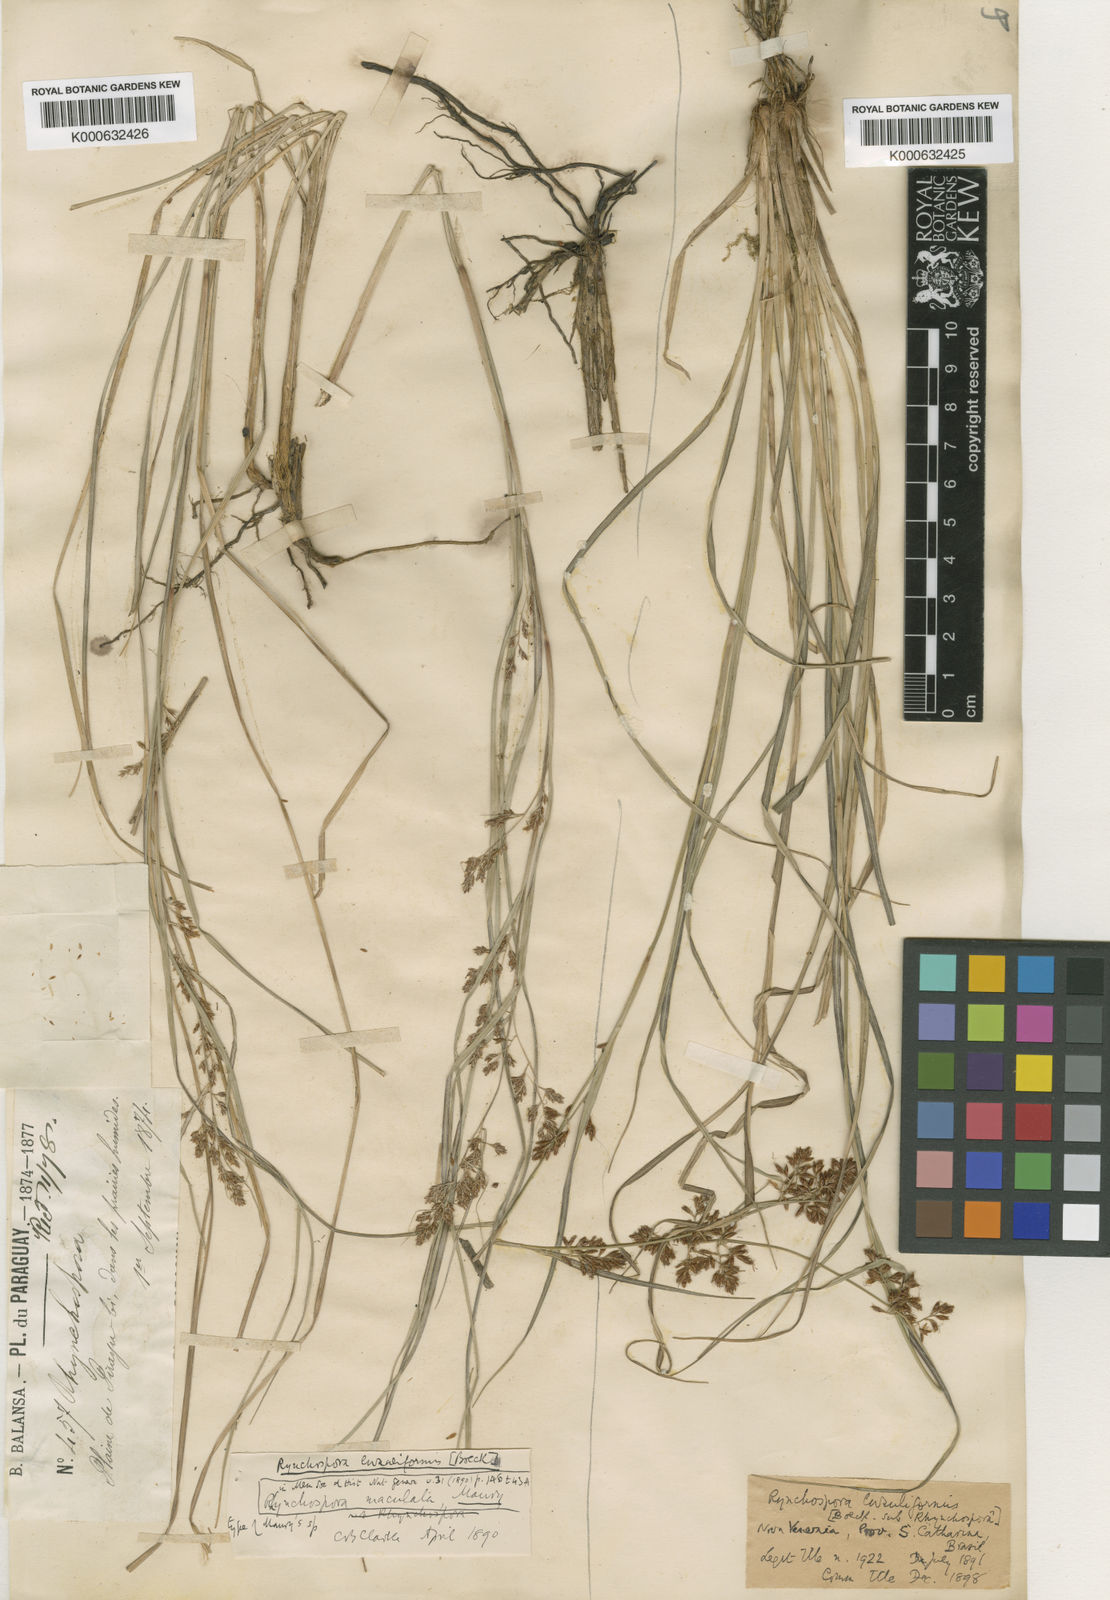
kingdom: Plantae
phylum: Tracheophyta
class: Liliopsida
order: Poales
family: Cyperaceae
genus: Rhynchospora
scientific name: Rhynchospora contracta
